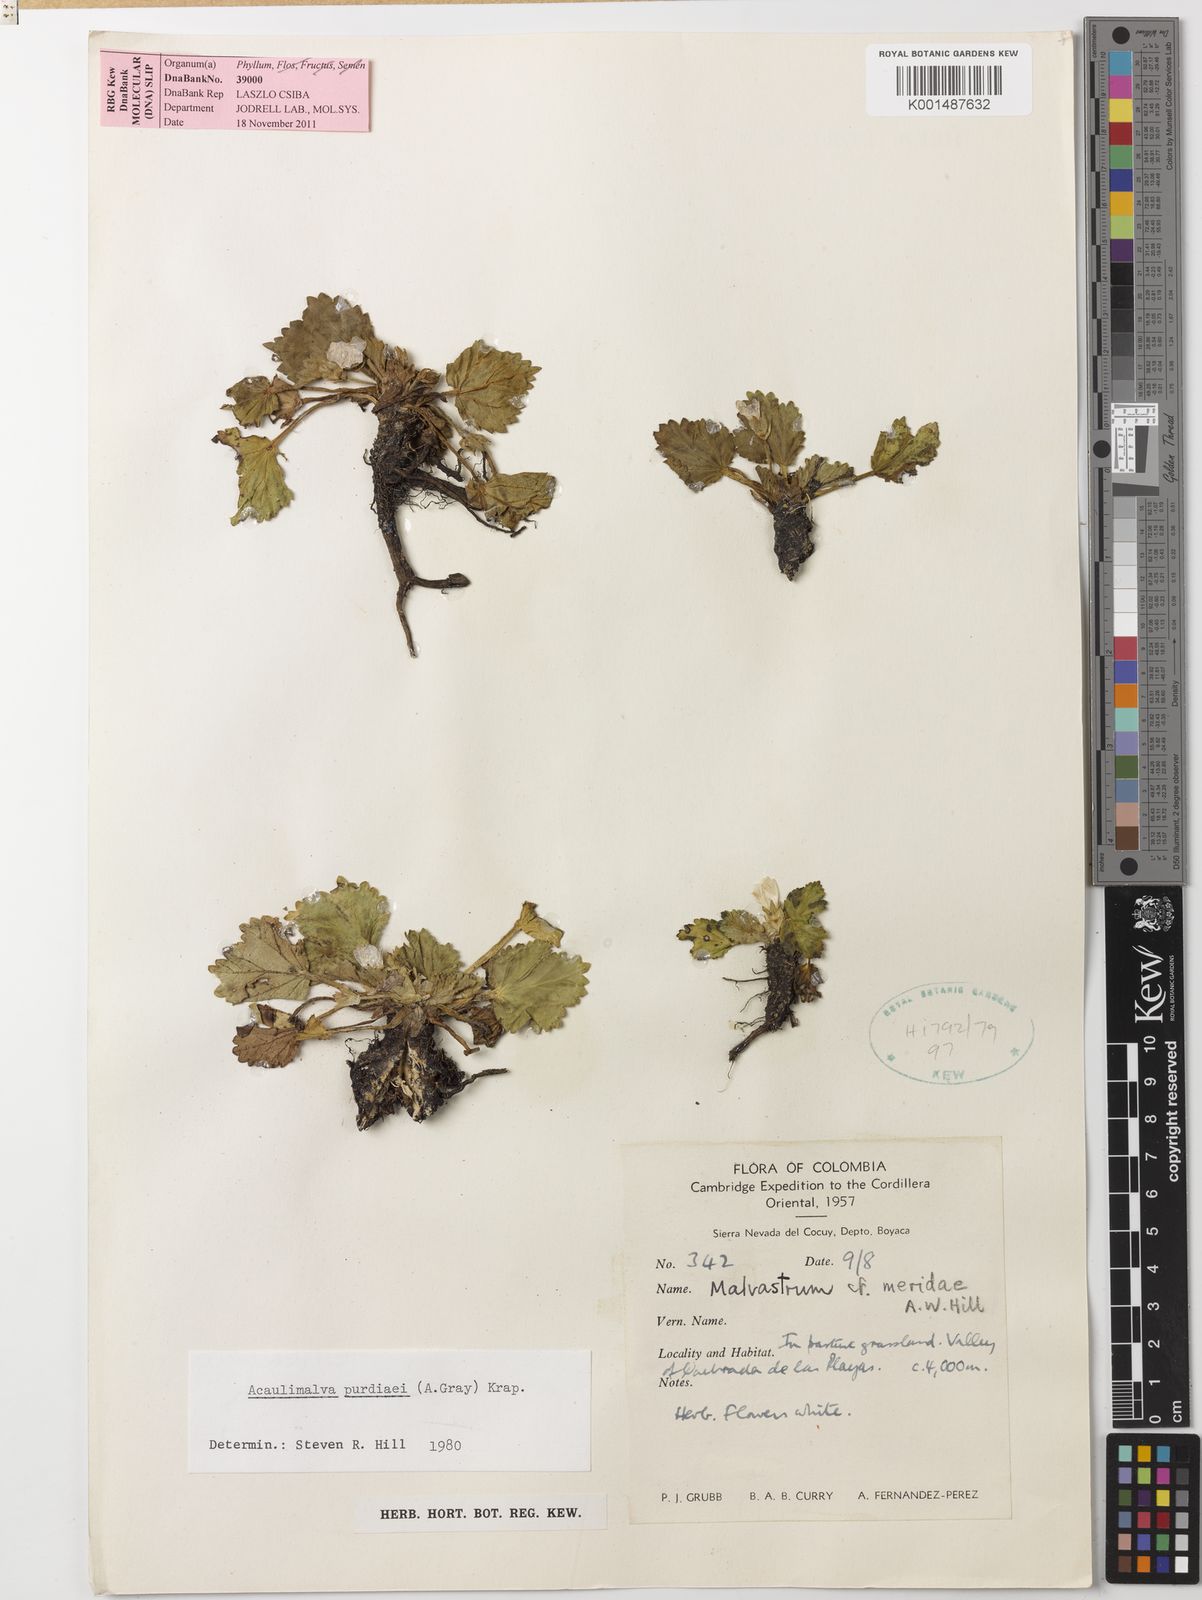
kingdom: Plantae
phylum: Tracheophyta
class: Magnoliopsida
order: Malvales
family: Malvaceae
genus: Acaulimalva
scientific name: Acaulimalva purdiaei
